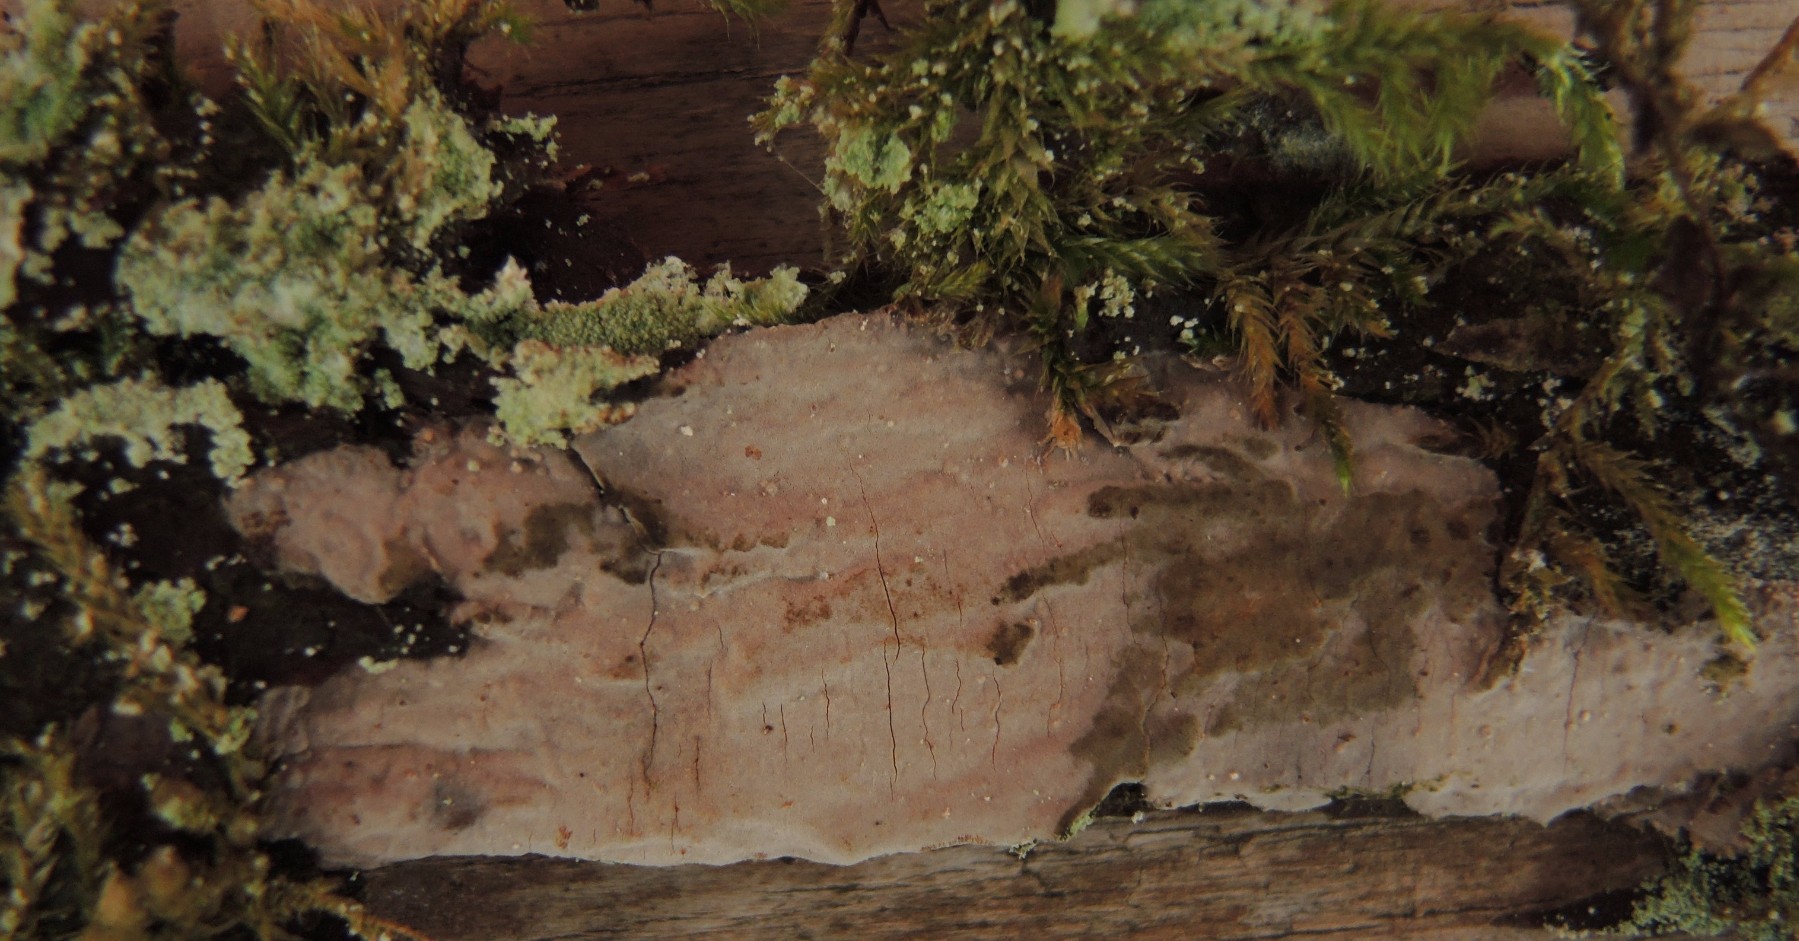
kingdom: Fungi
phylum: Basidiomycota
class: Agaricomycetes
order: Russulales
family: Echinodontiaceae
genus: Amylostereum
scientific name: Amylostereum laevigatum
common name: ene-lædersvamp
